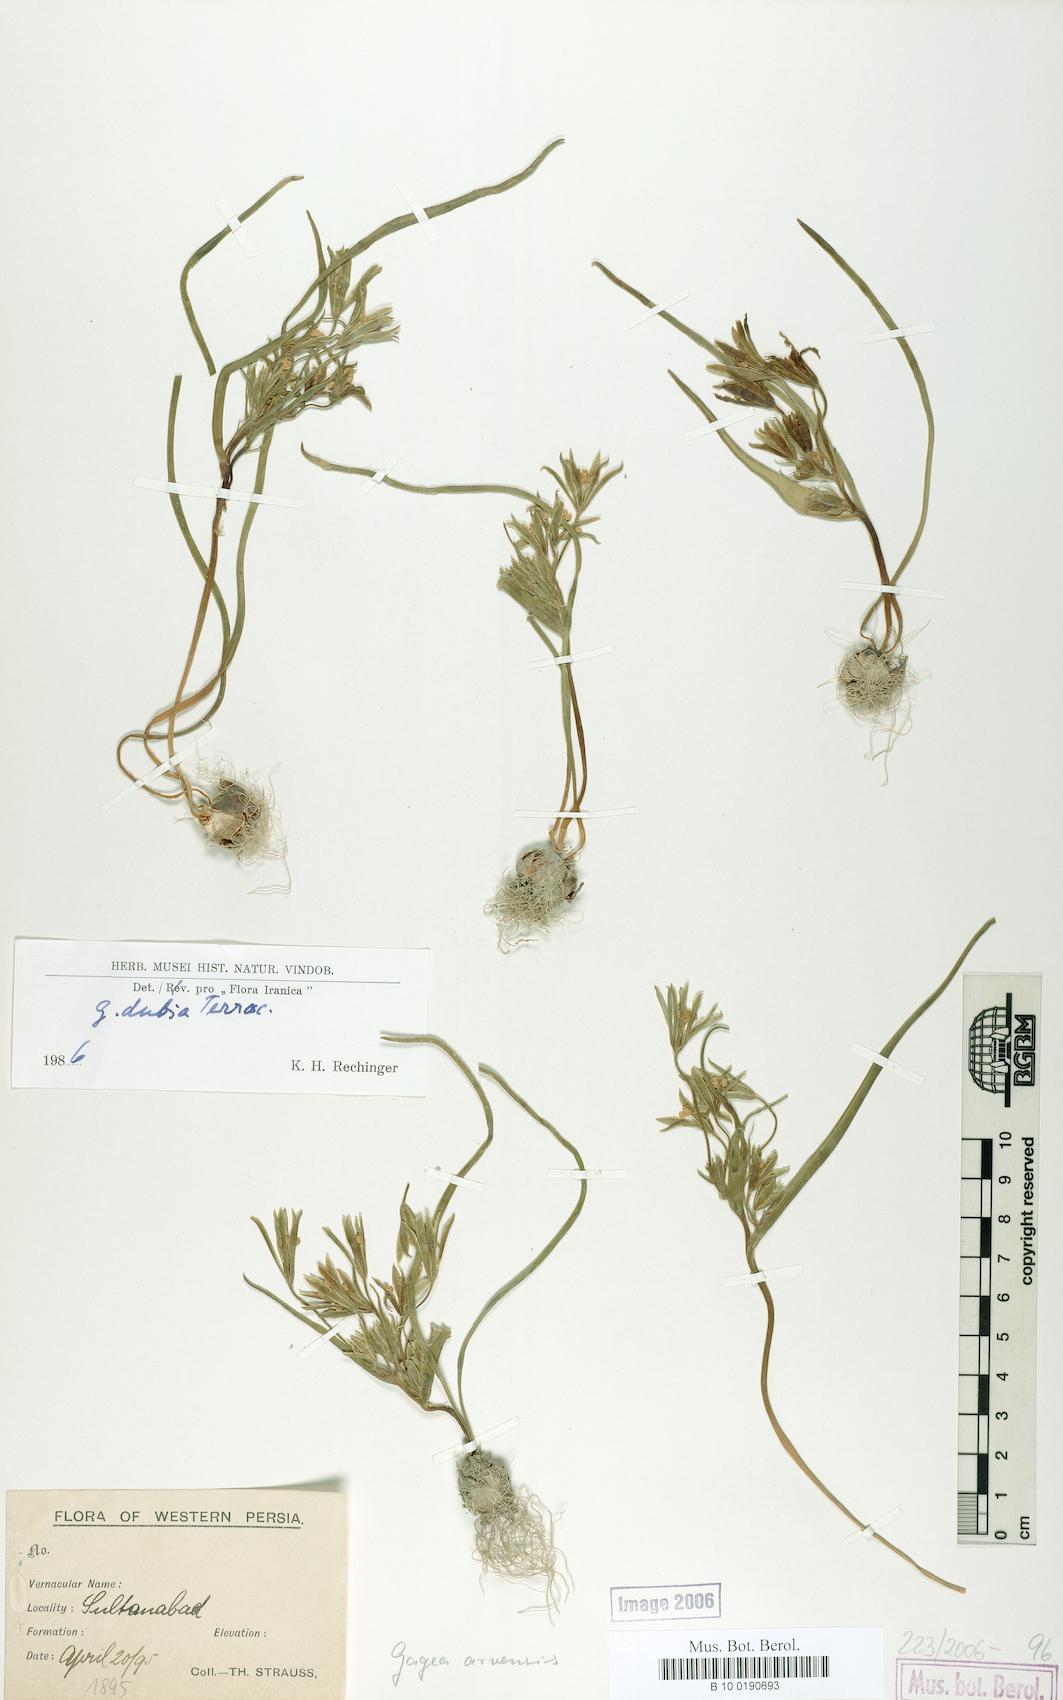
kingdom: Plantae
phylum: Tracheophyta
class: Liliopsida
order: Liliales
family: Liliaceae
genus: Gagea
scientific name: Gagea dubia
